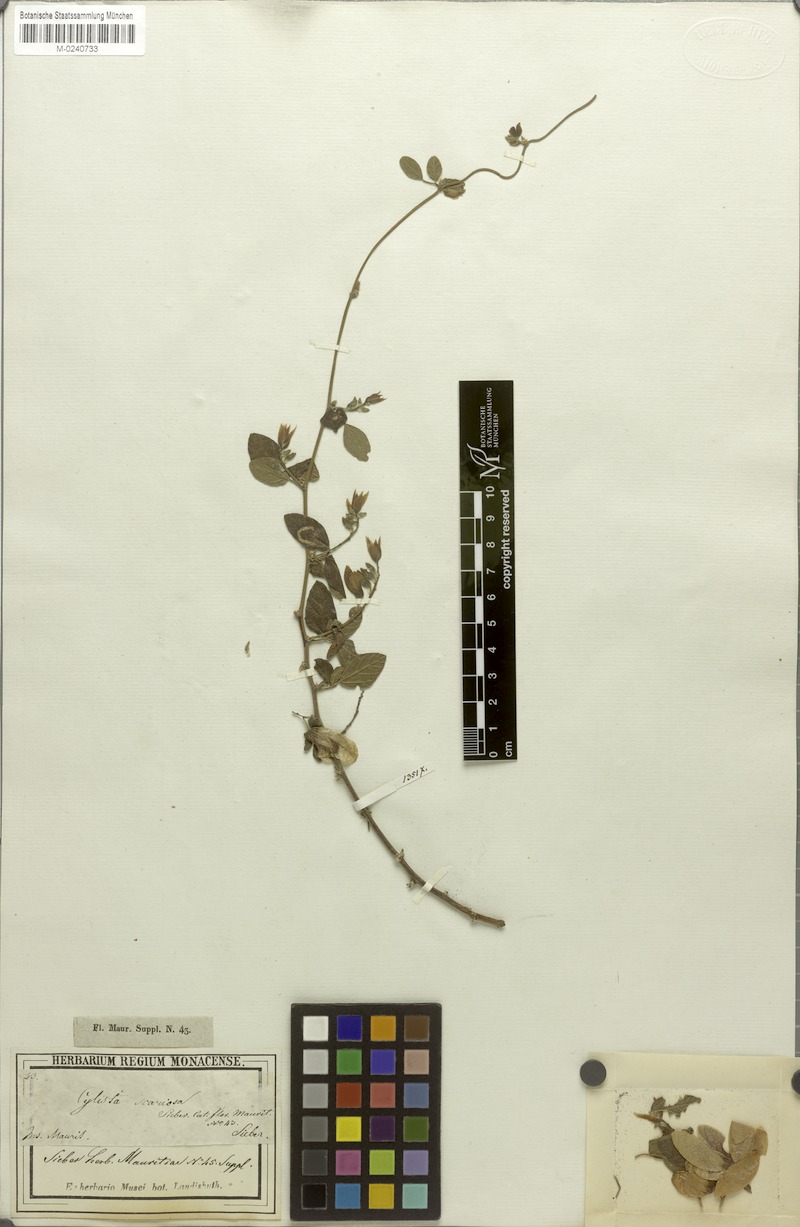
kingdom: Plantae
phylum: Tracheophyta
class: Magnoliopsida
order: Fabales
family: Fabaceae
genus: Paracalyx
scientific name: Paracalyx scariosus
